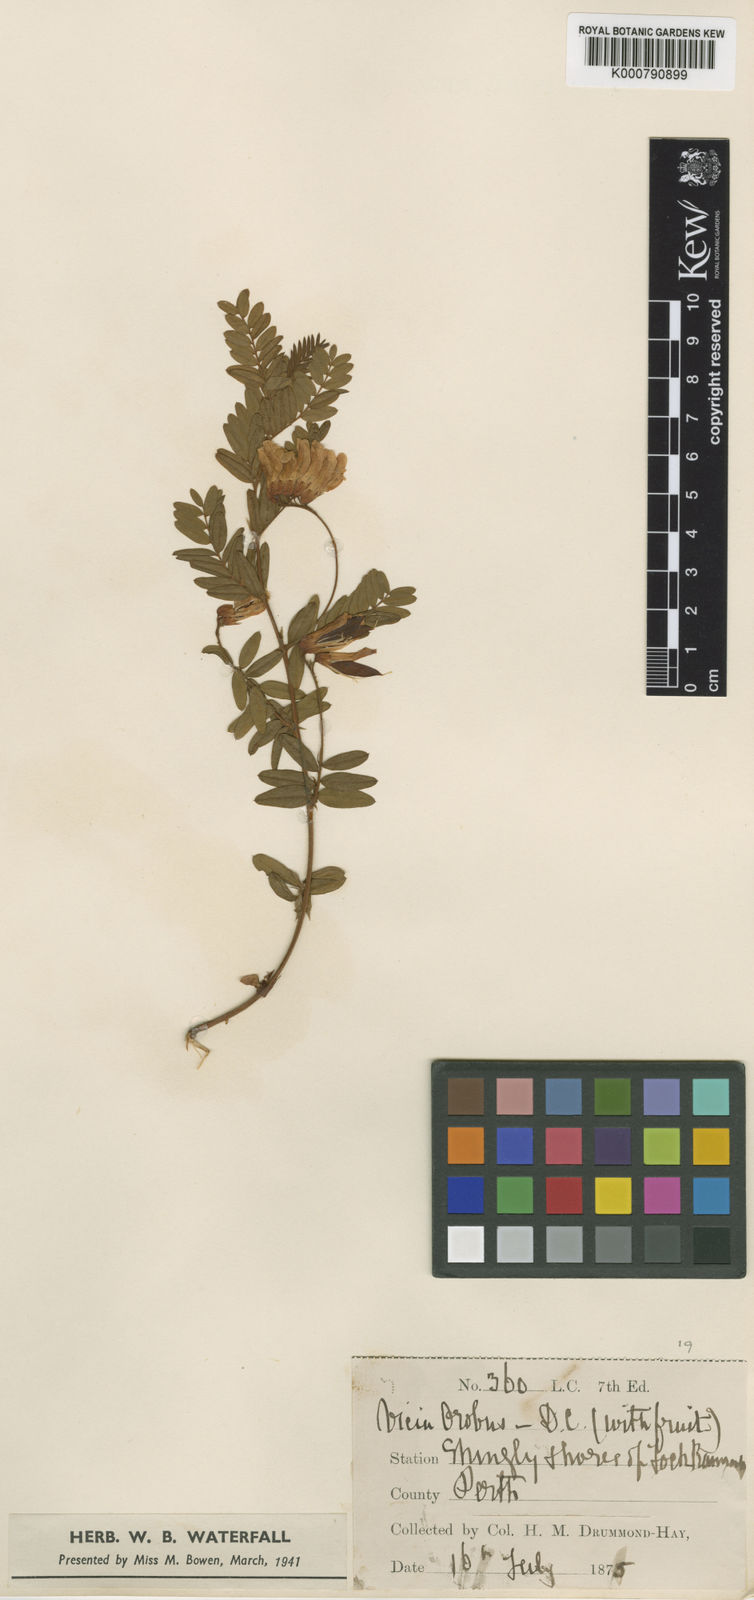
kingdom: Plantae
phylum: Tracheophyta
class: Magnoliopsida
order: Fabales
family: Fabaceae
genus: Vicia
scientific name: Vicia orobus
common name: Wood bitter-vetch
